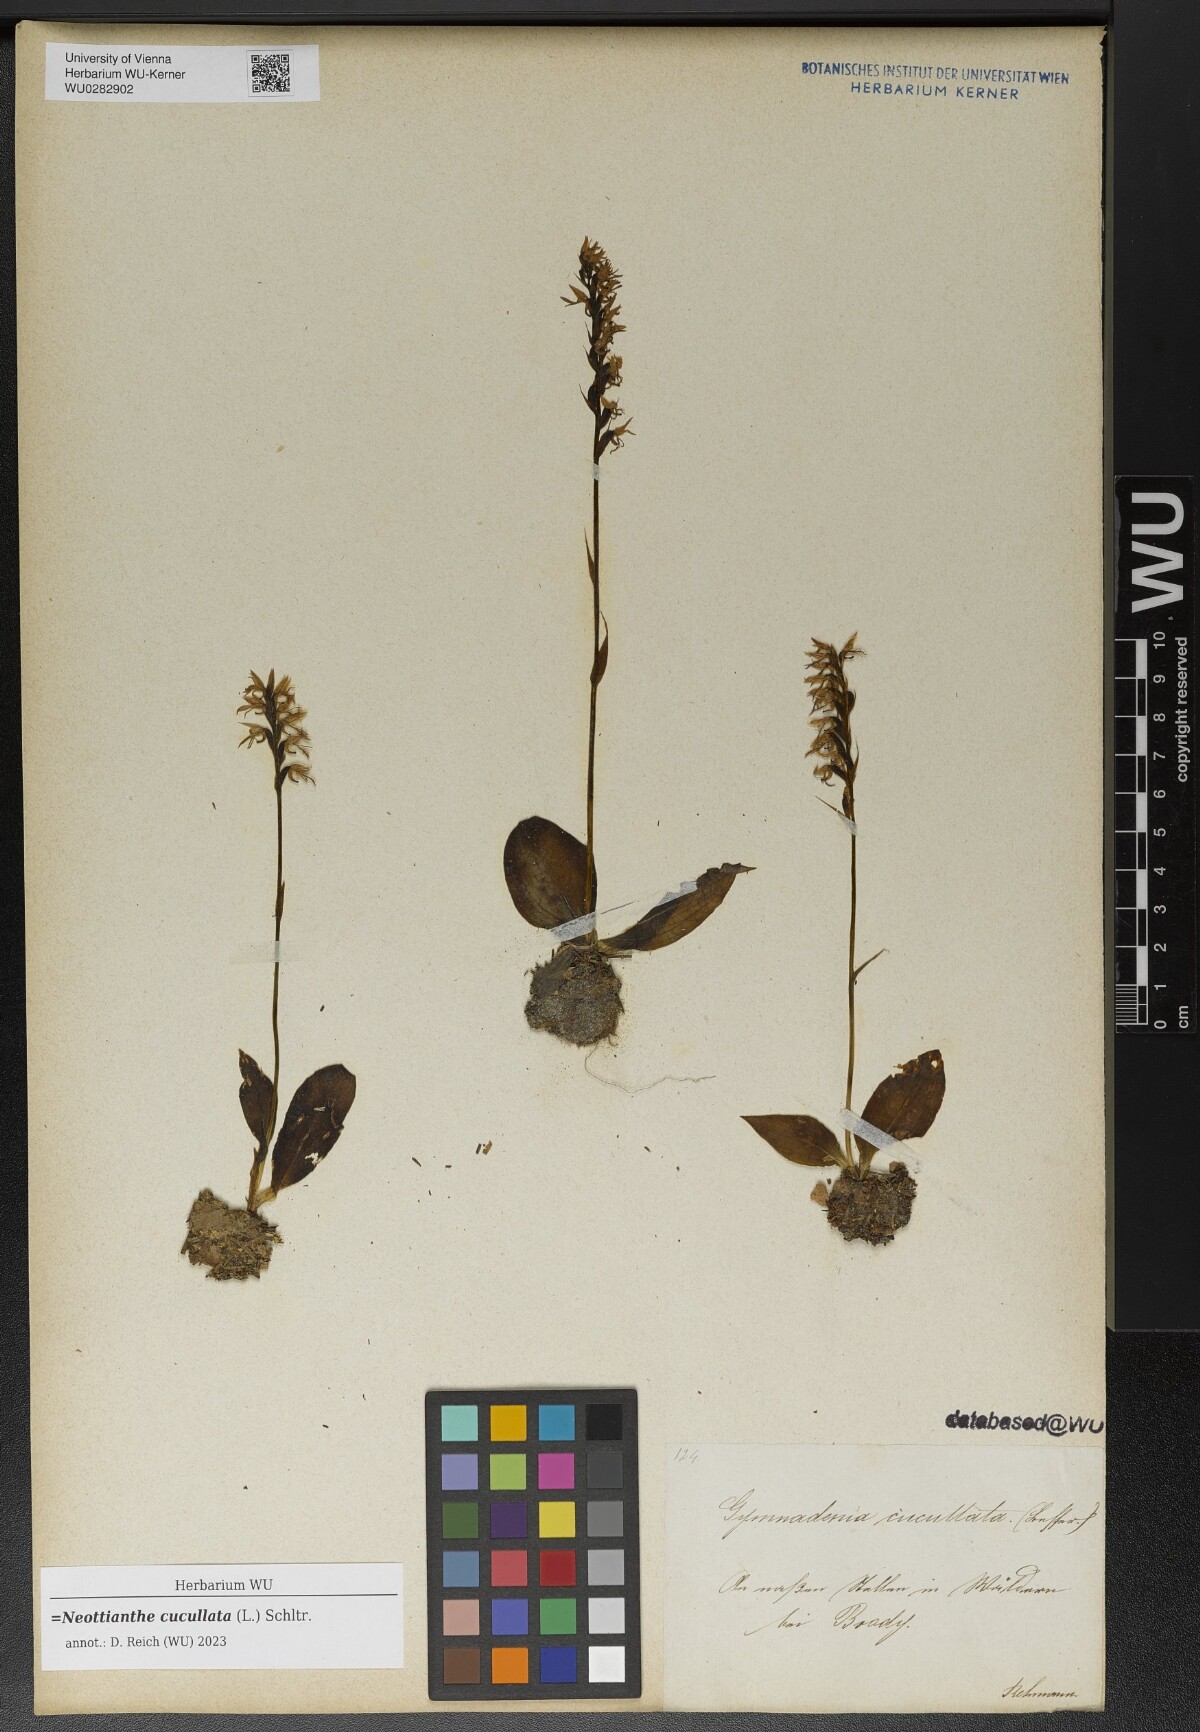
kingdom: Plantae
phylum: Tracheophyta
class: Liliopsida
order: Asparagales
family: Orchidaceae
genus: Hemipilia
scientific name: Hemipilia cucullata
